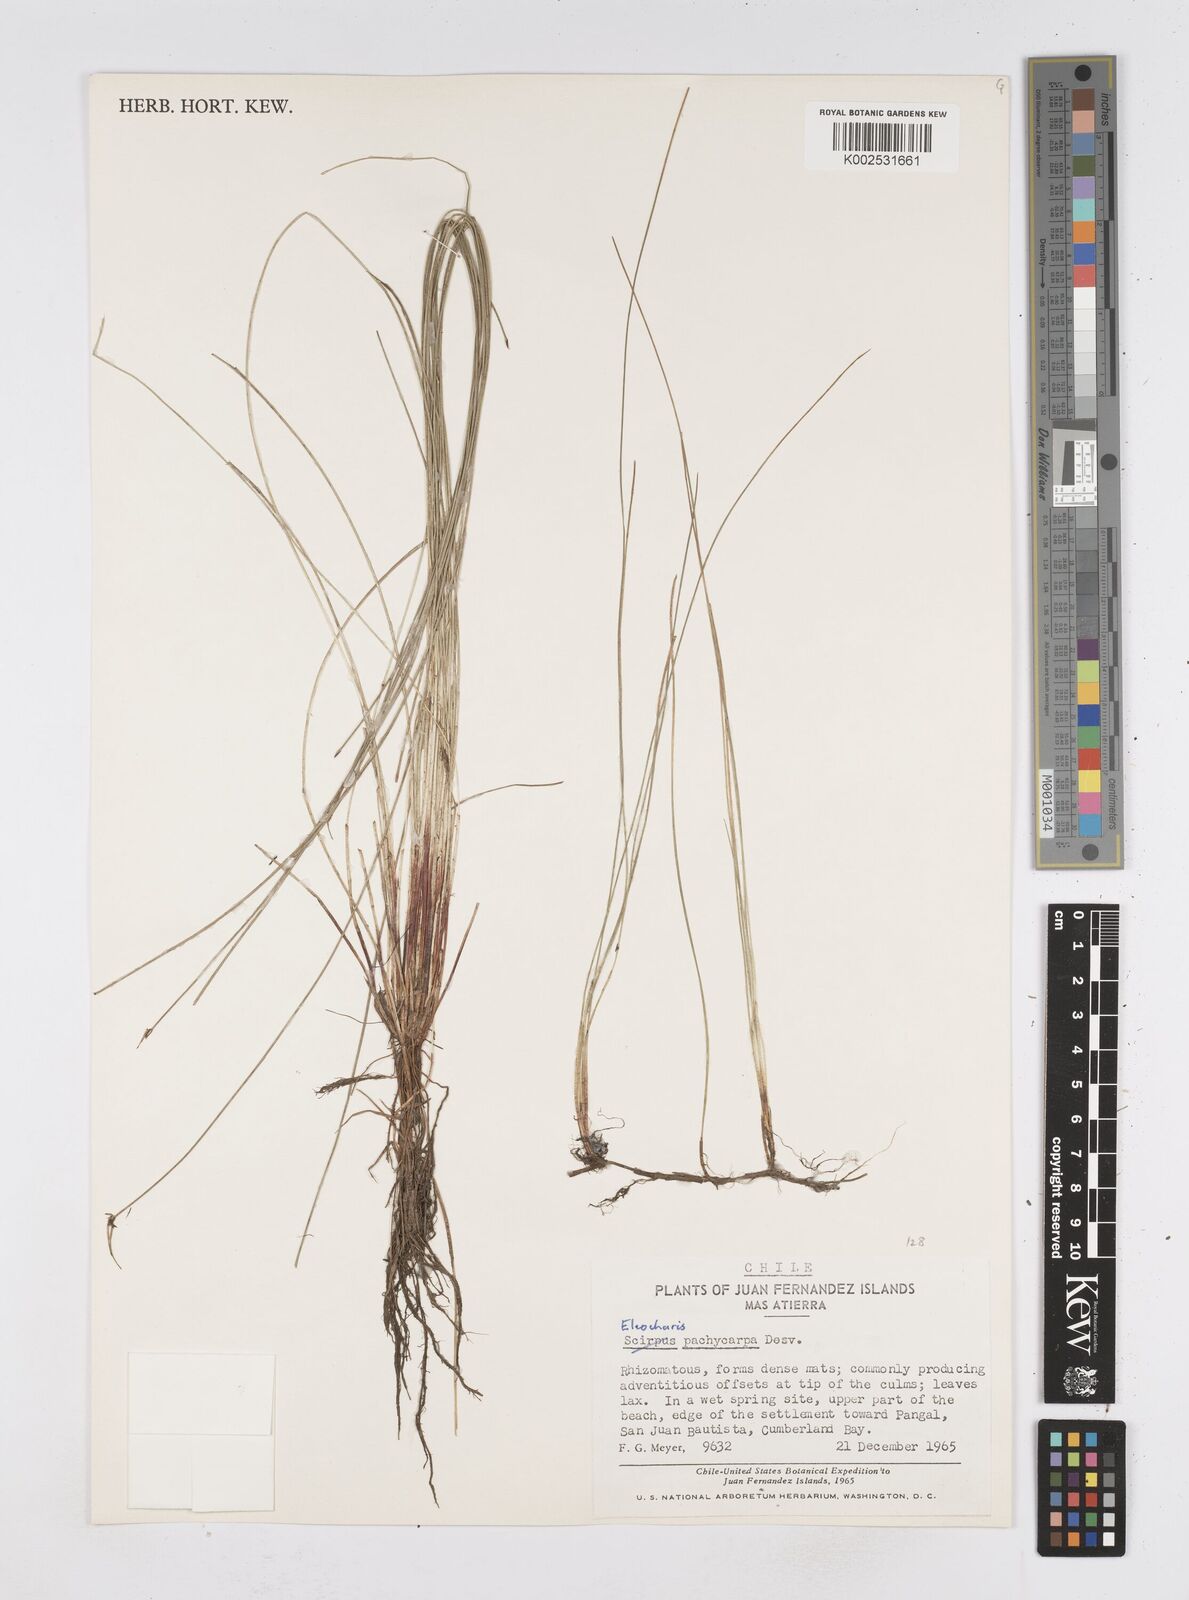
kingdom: Plantae
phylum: Tracheophyta
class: Liliopsida
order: Poales
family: Cyperaceae
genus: Eleocharis
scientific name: Eleocharis pachycarpa
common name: Black sand spikerush
